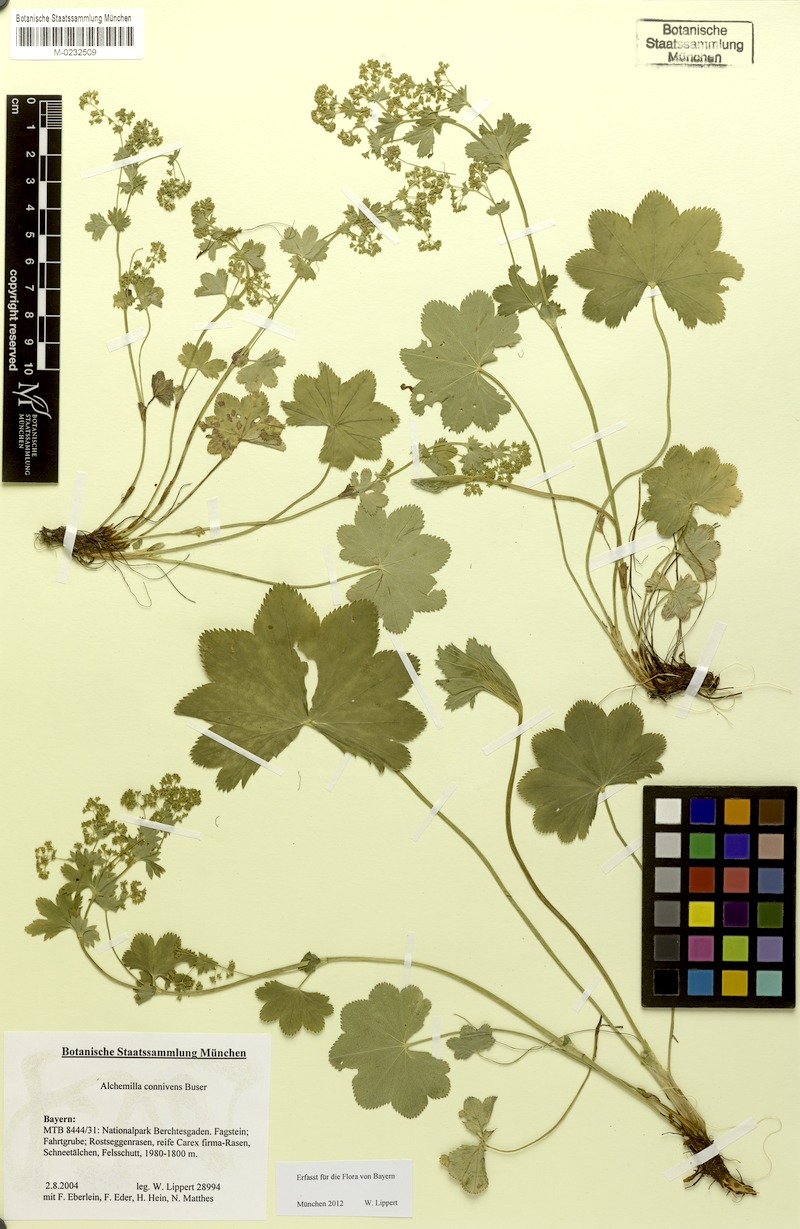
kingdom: Plantae
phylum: Tracheophyta
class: Magnoliopsida
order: Rosales
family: Rosaceae
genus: Alchemilla
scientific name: Alchemilla connivens
